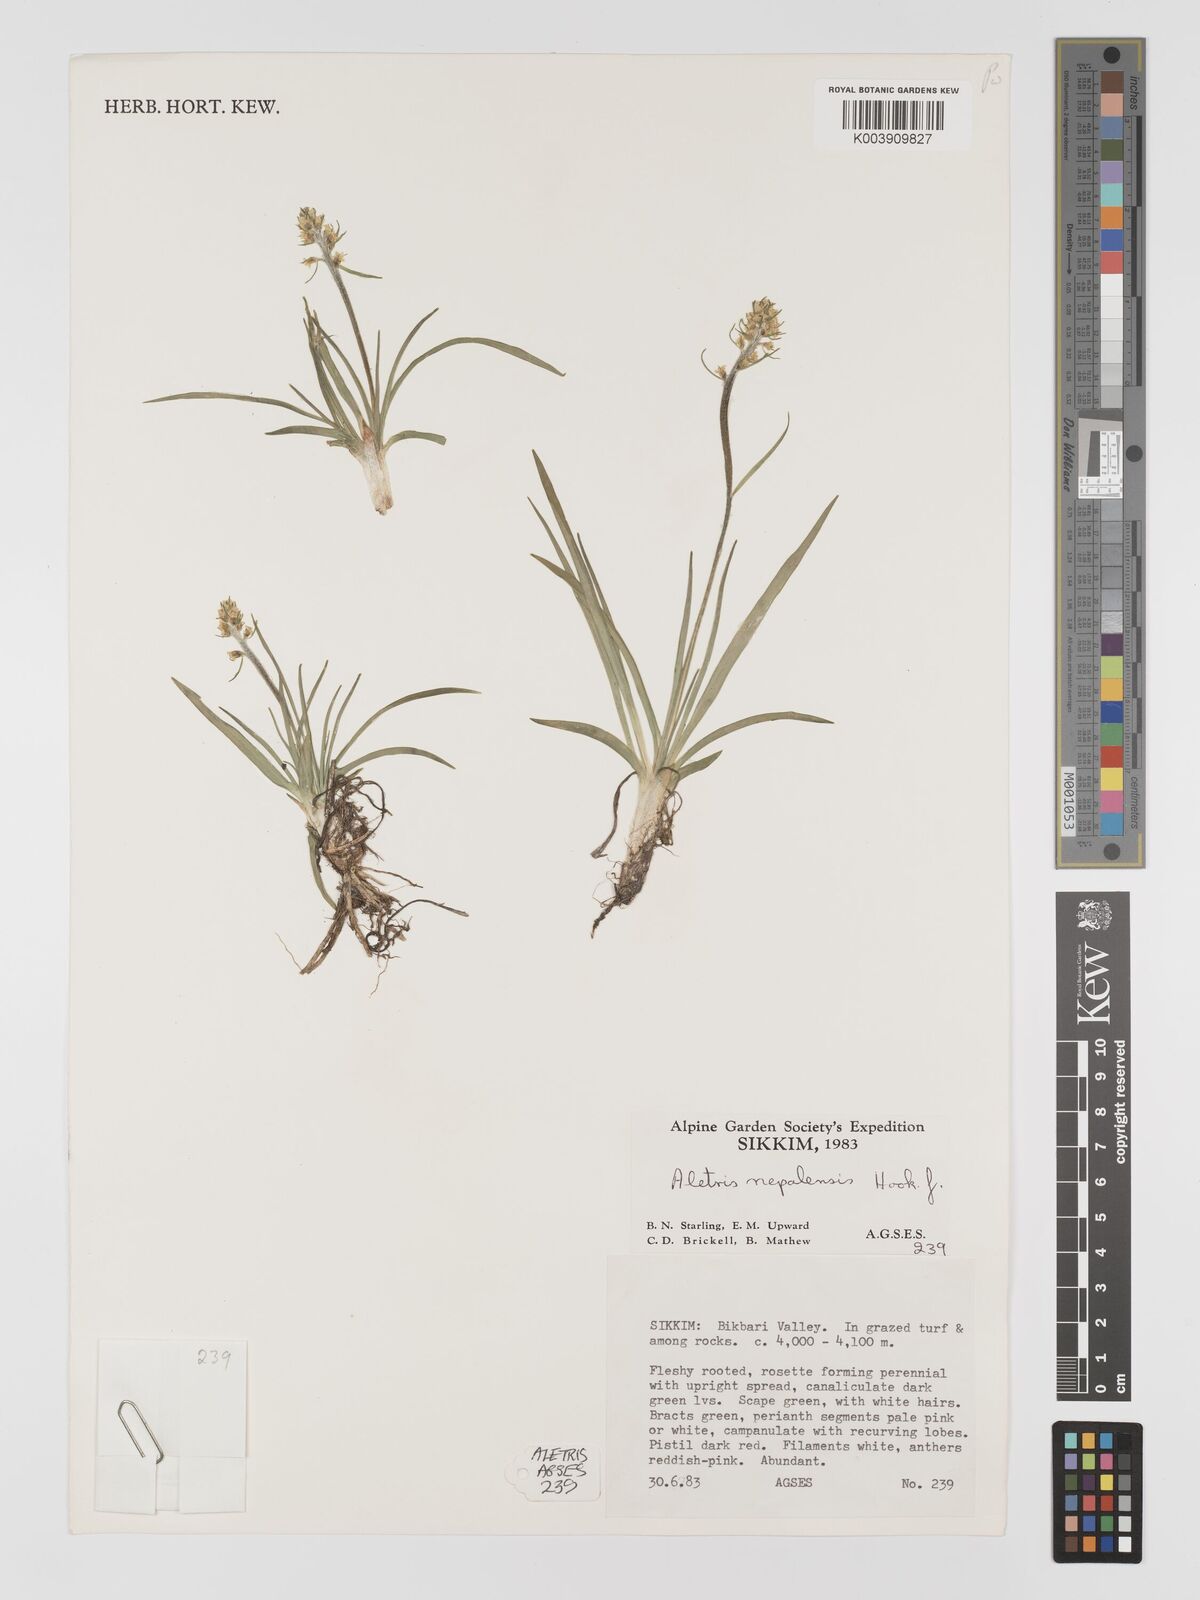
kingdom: Plantae
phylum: Tracheophyta
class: Liliopsida
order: Dioscoreales
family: Nartheciaceae
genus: Aletris
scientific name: Aletris pauciflora
